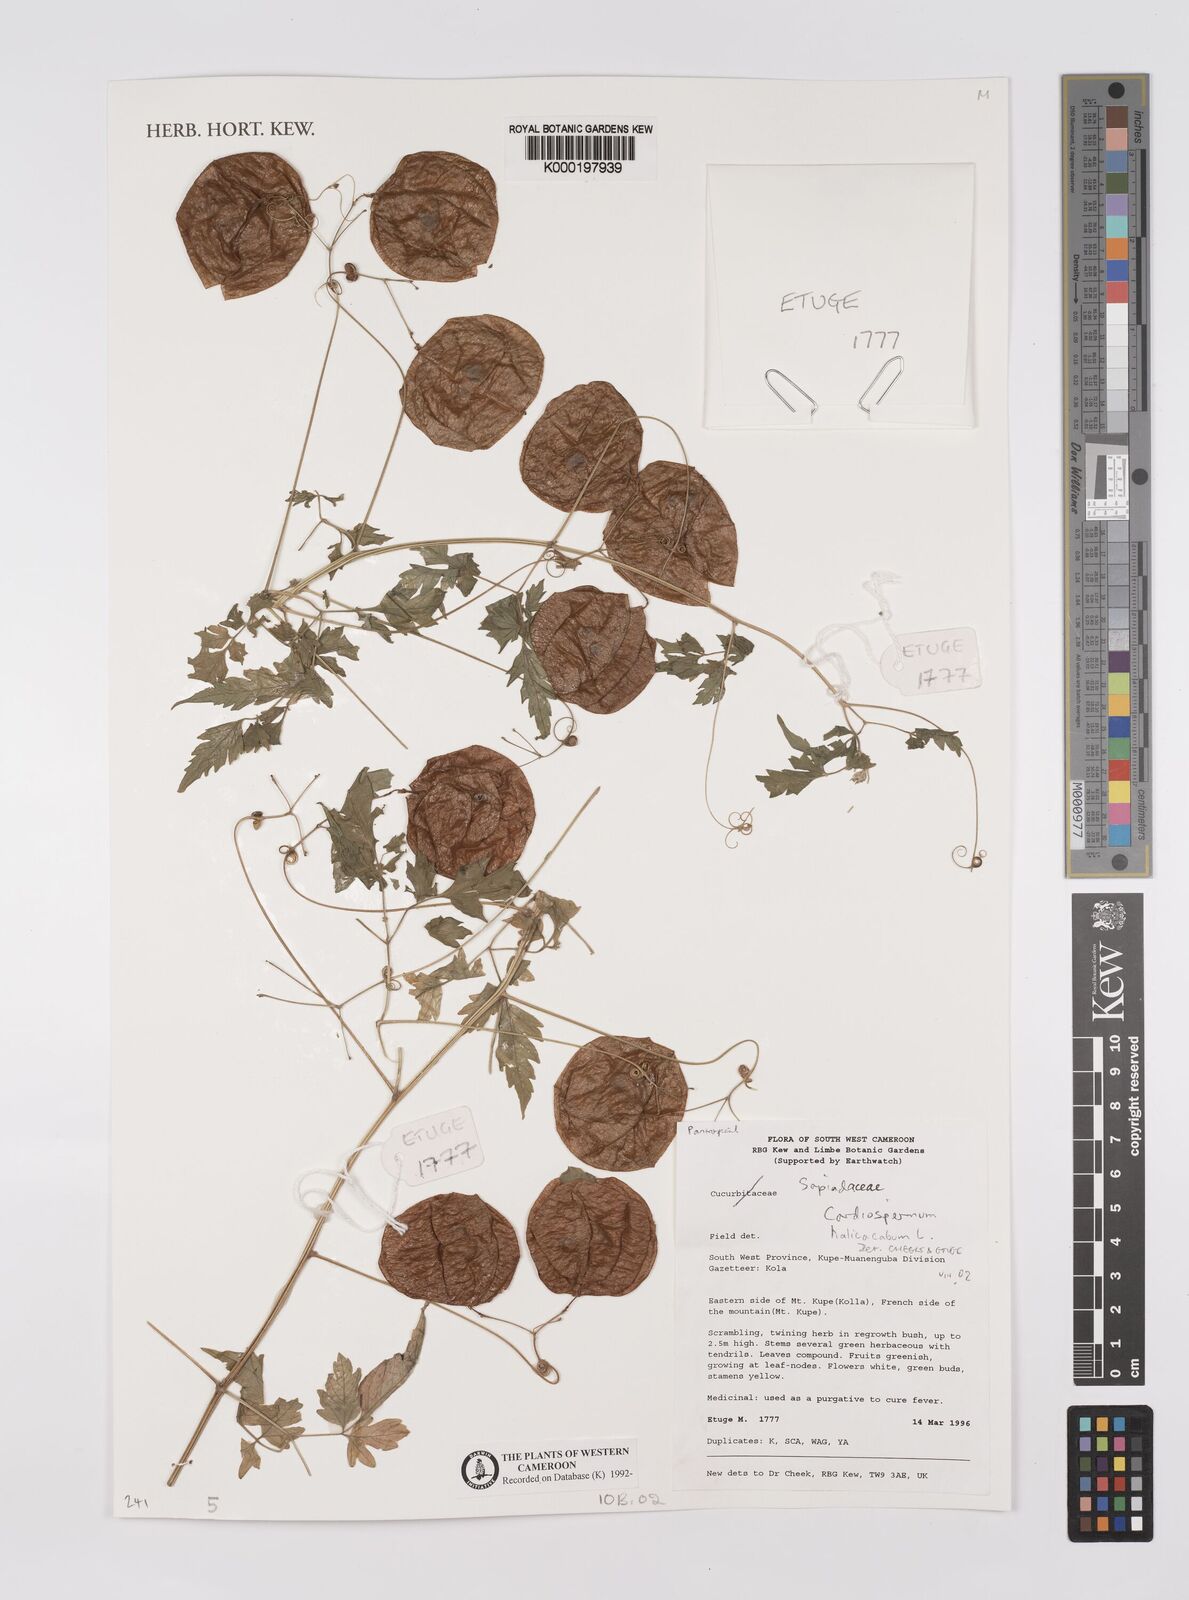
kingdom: Plantae
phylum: Tracheophyta
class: Magnoliopsida
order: Sapindales
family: Sapindaceae
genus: Cardiospermum
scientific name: Cardiospermum halicacabum
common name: Balloon vine
